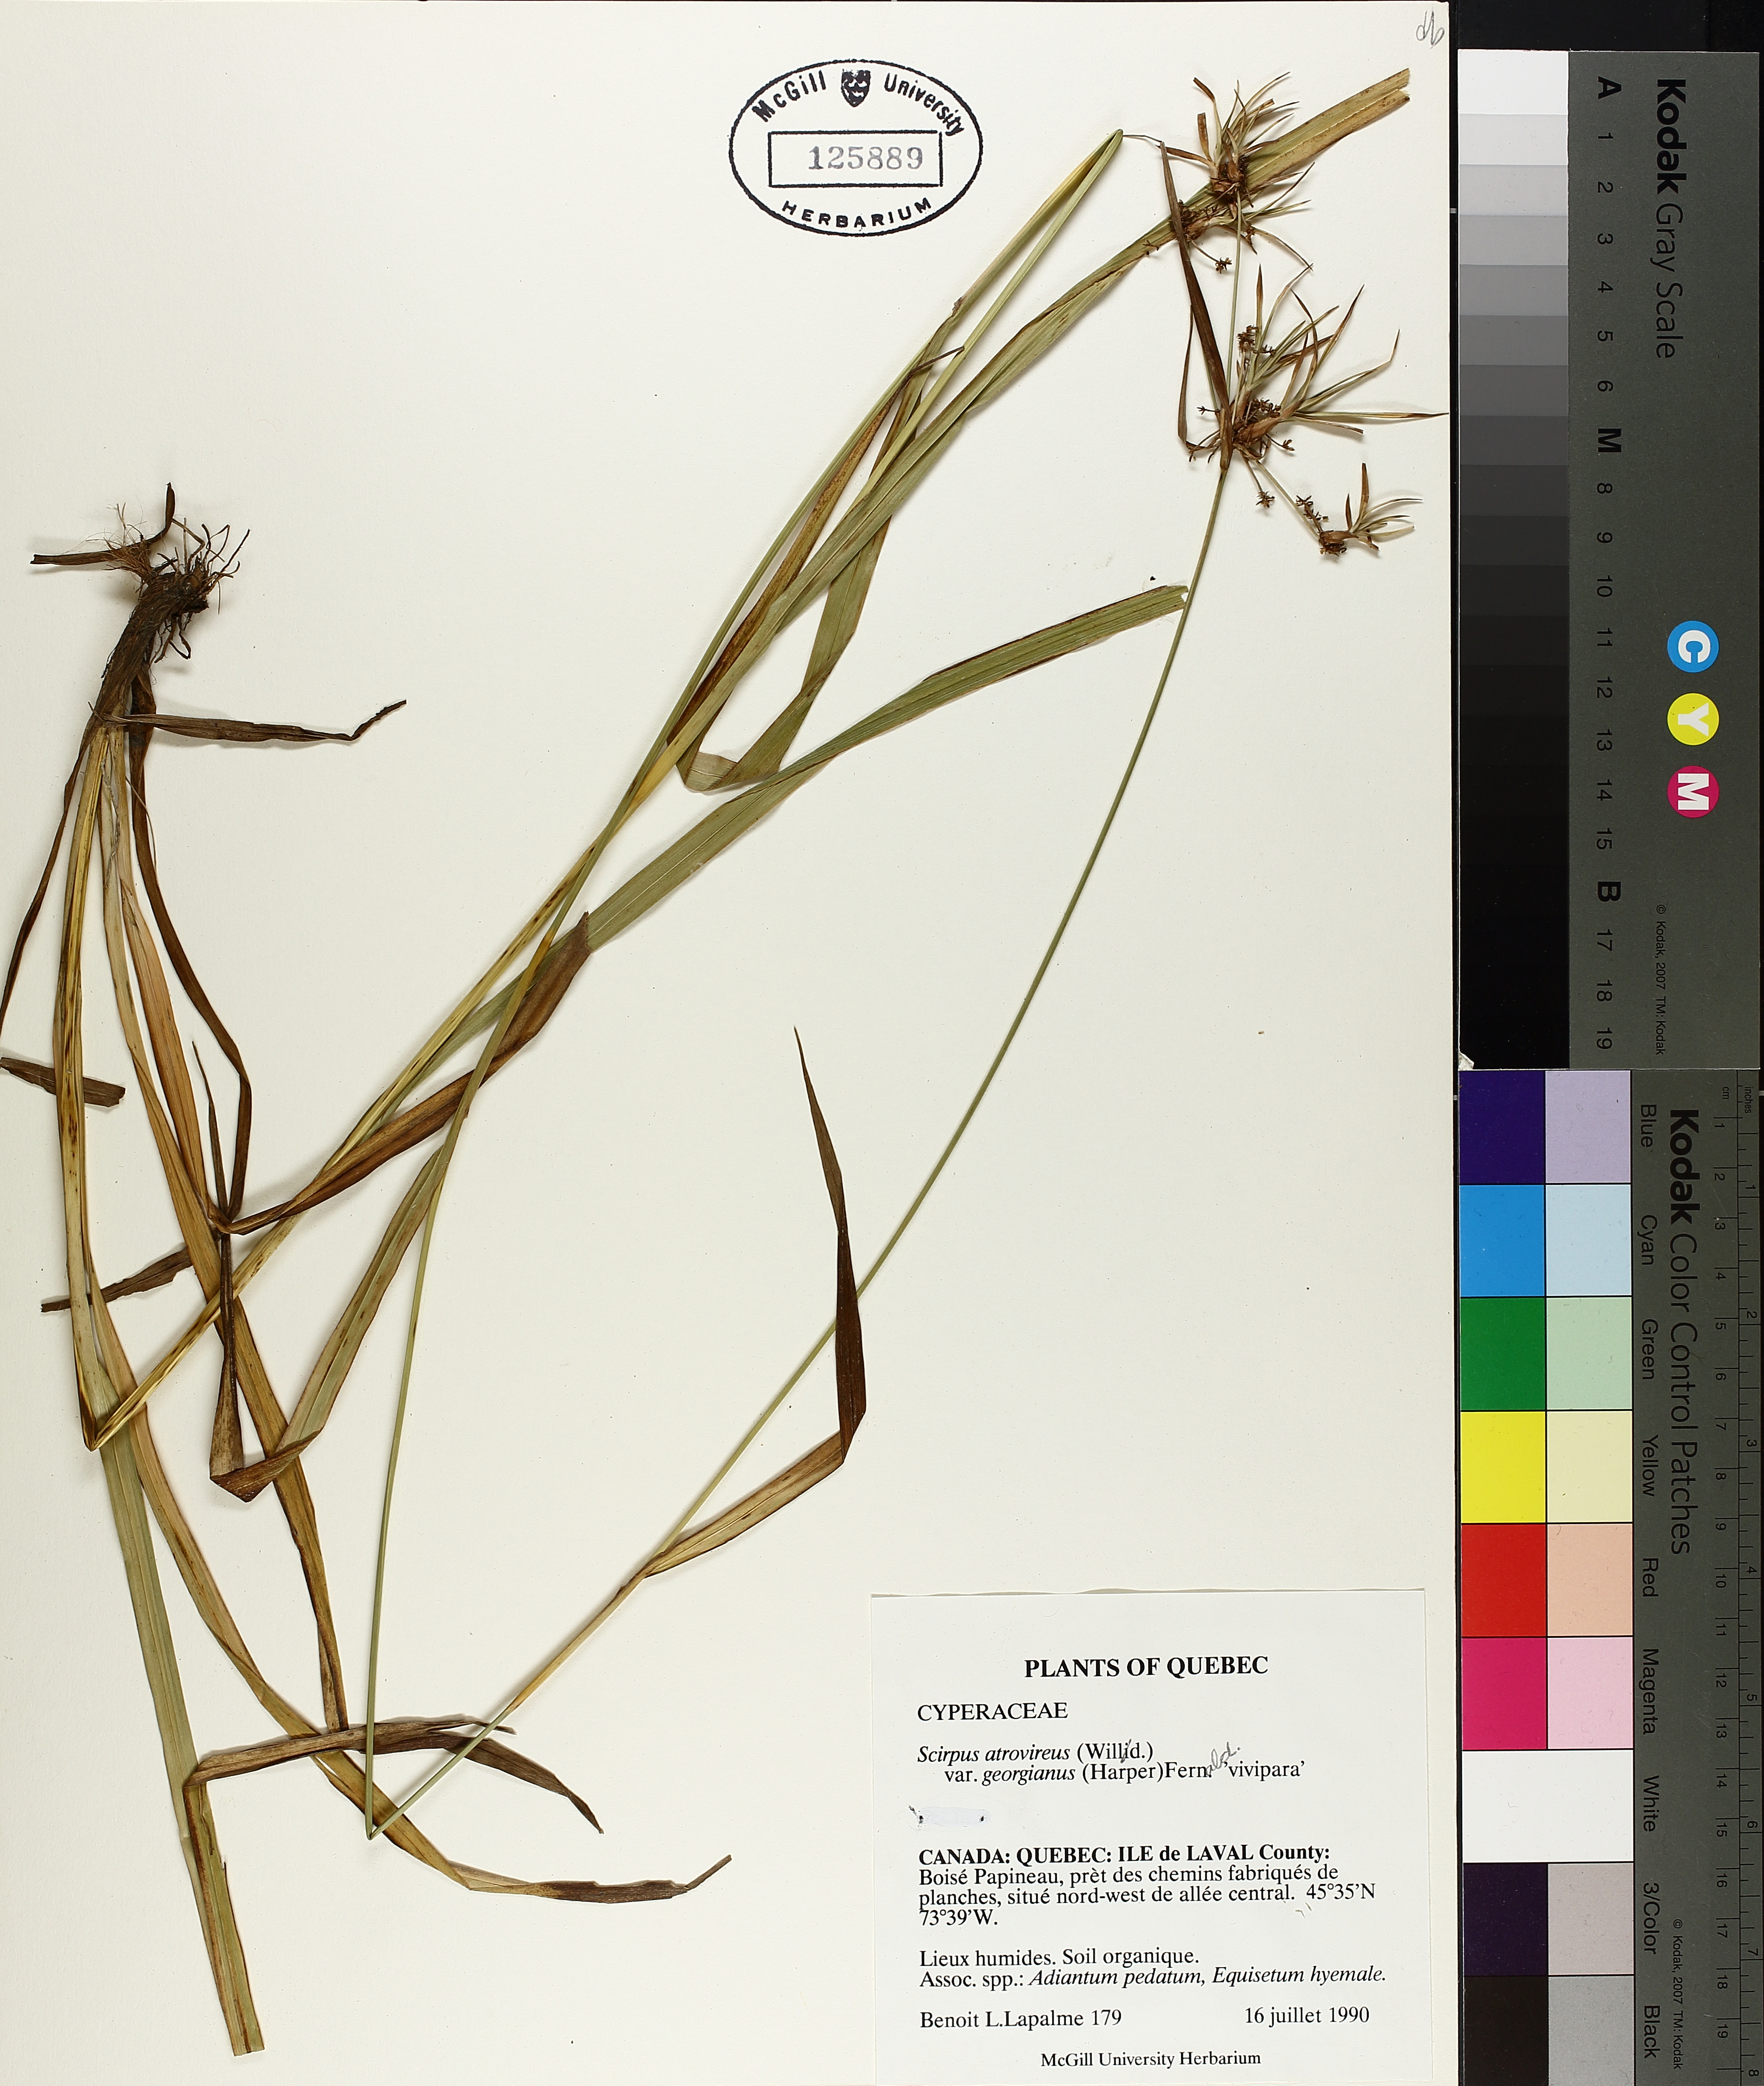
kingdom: Plantae
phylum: Tracheophyta
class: Liliopsida
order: Poales
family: Cyperaceae
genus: Scirpus
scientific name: Scirpus georgianus
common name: Bristleless dark-green bulrush
